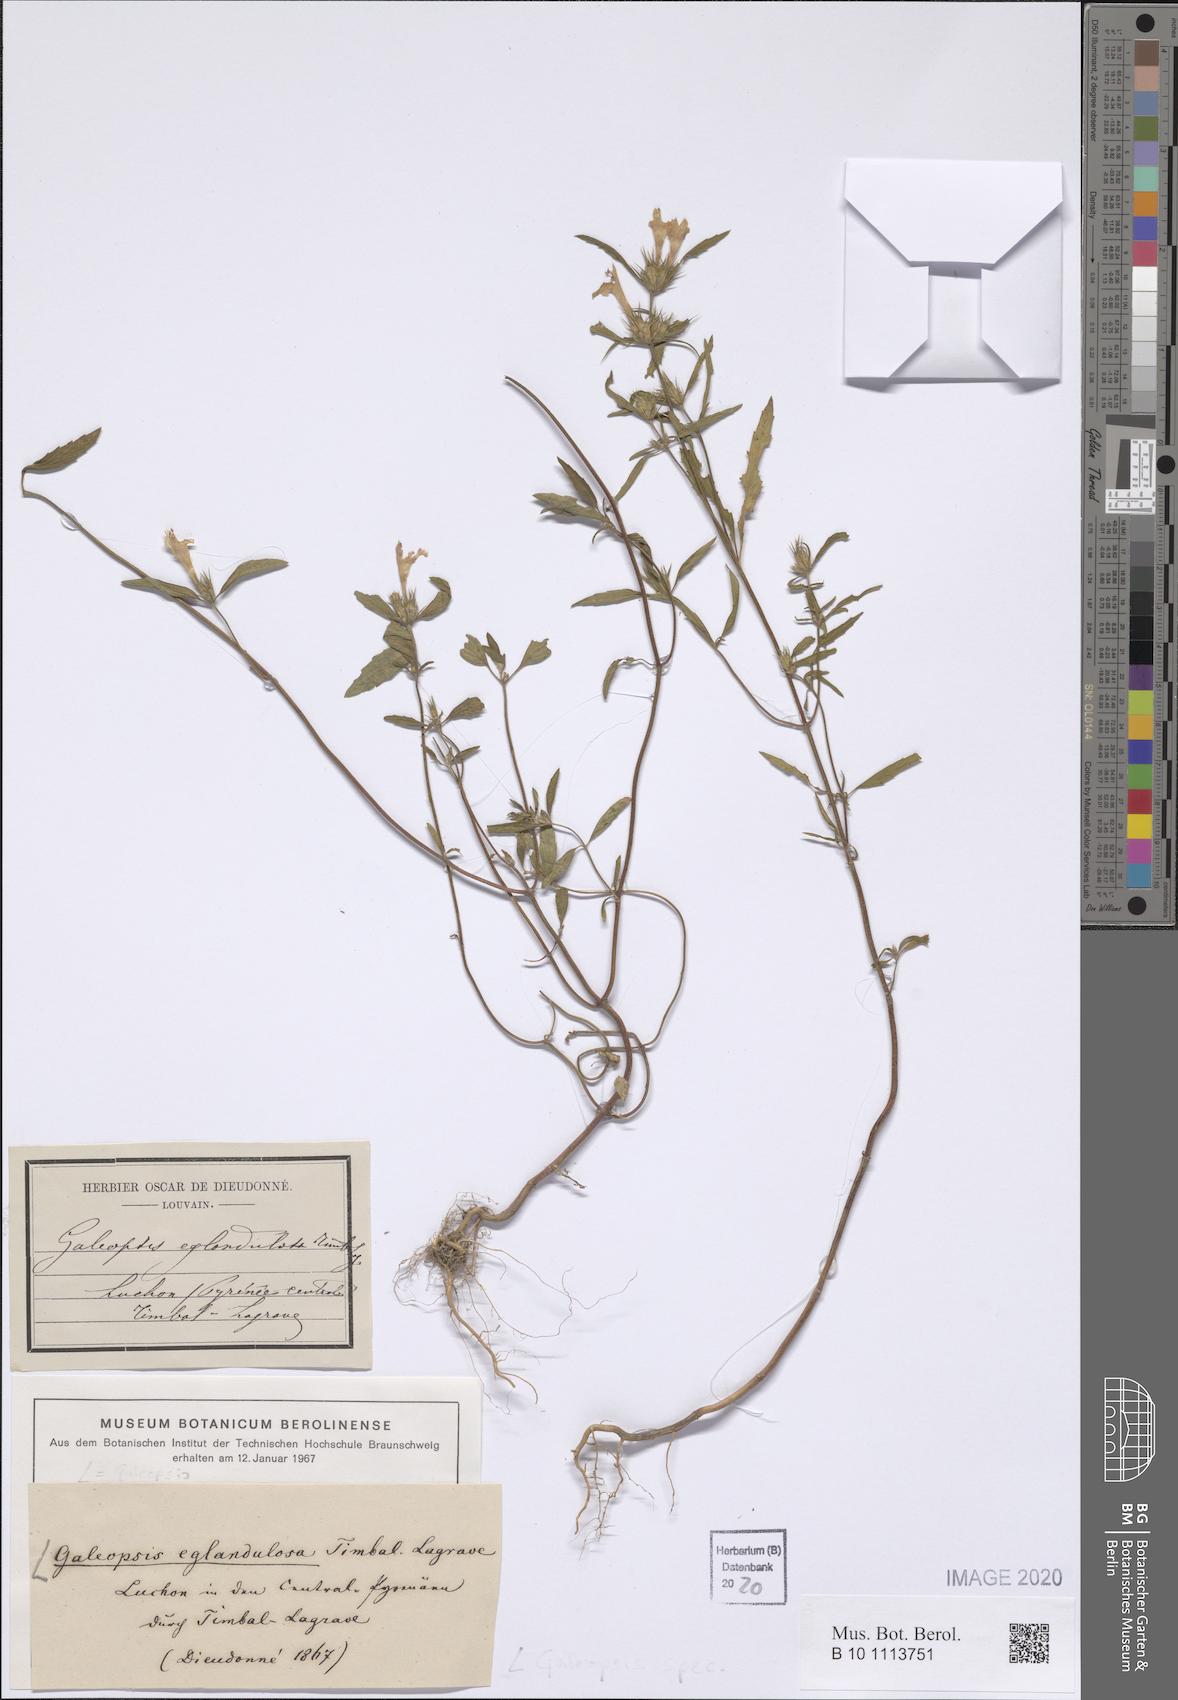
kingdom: Plantae
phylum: Tracheophyta
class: Magnoliopsida
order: Lamiales
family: Lamiaceae
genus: Galeopsis
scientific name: Galeopsis
